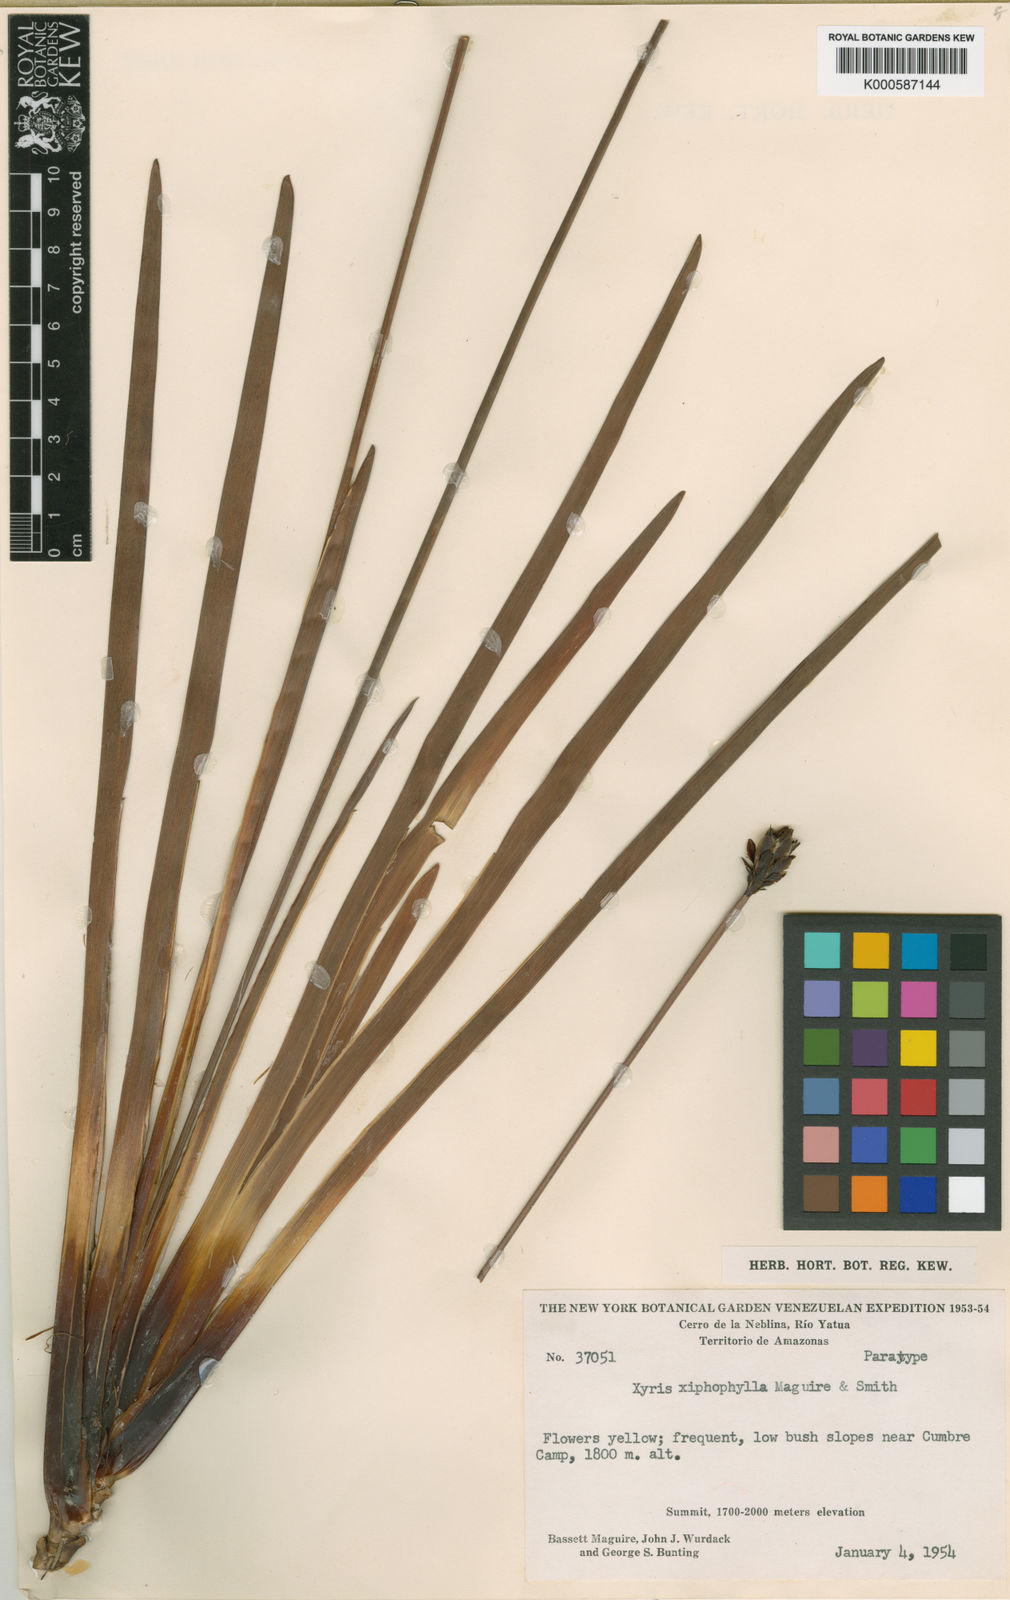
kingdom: Plantae
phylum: Tracheophyta
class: Liliopsida
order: Poales
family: Xyridaceae
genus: Xyris
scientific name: Xyris xiphophylla
